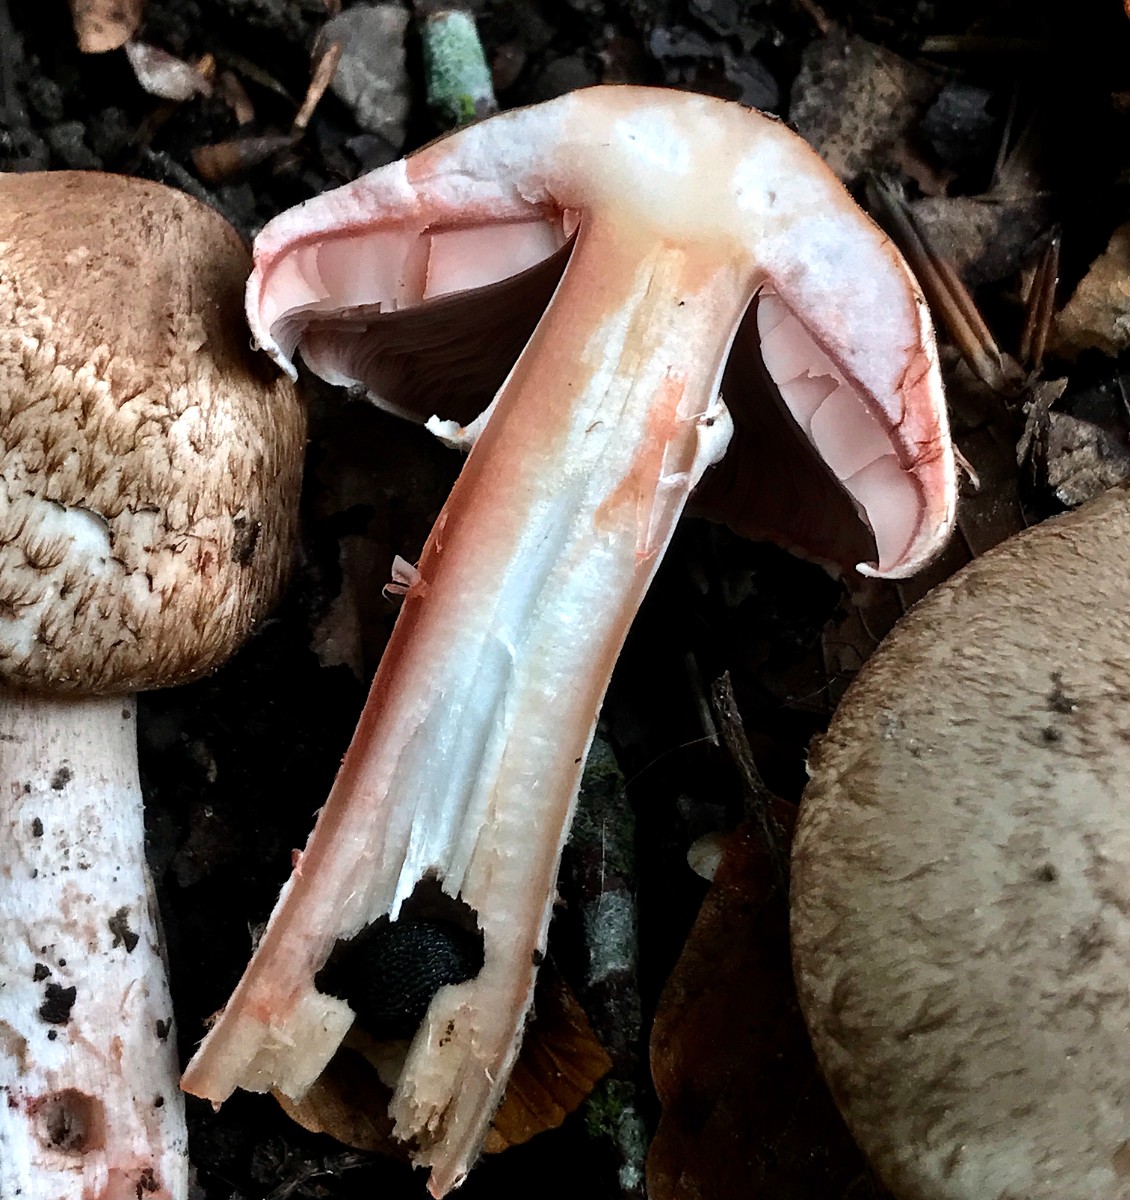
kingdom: Fungi
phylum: Basidiomycota
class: Agaricomycetes
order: Agaricales
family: Agaricaceae
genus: Agaricus
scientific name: Agaricus
